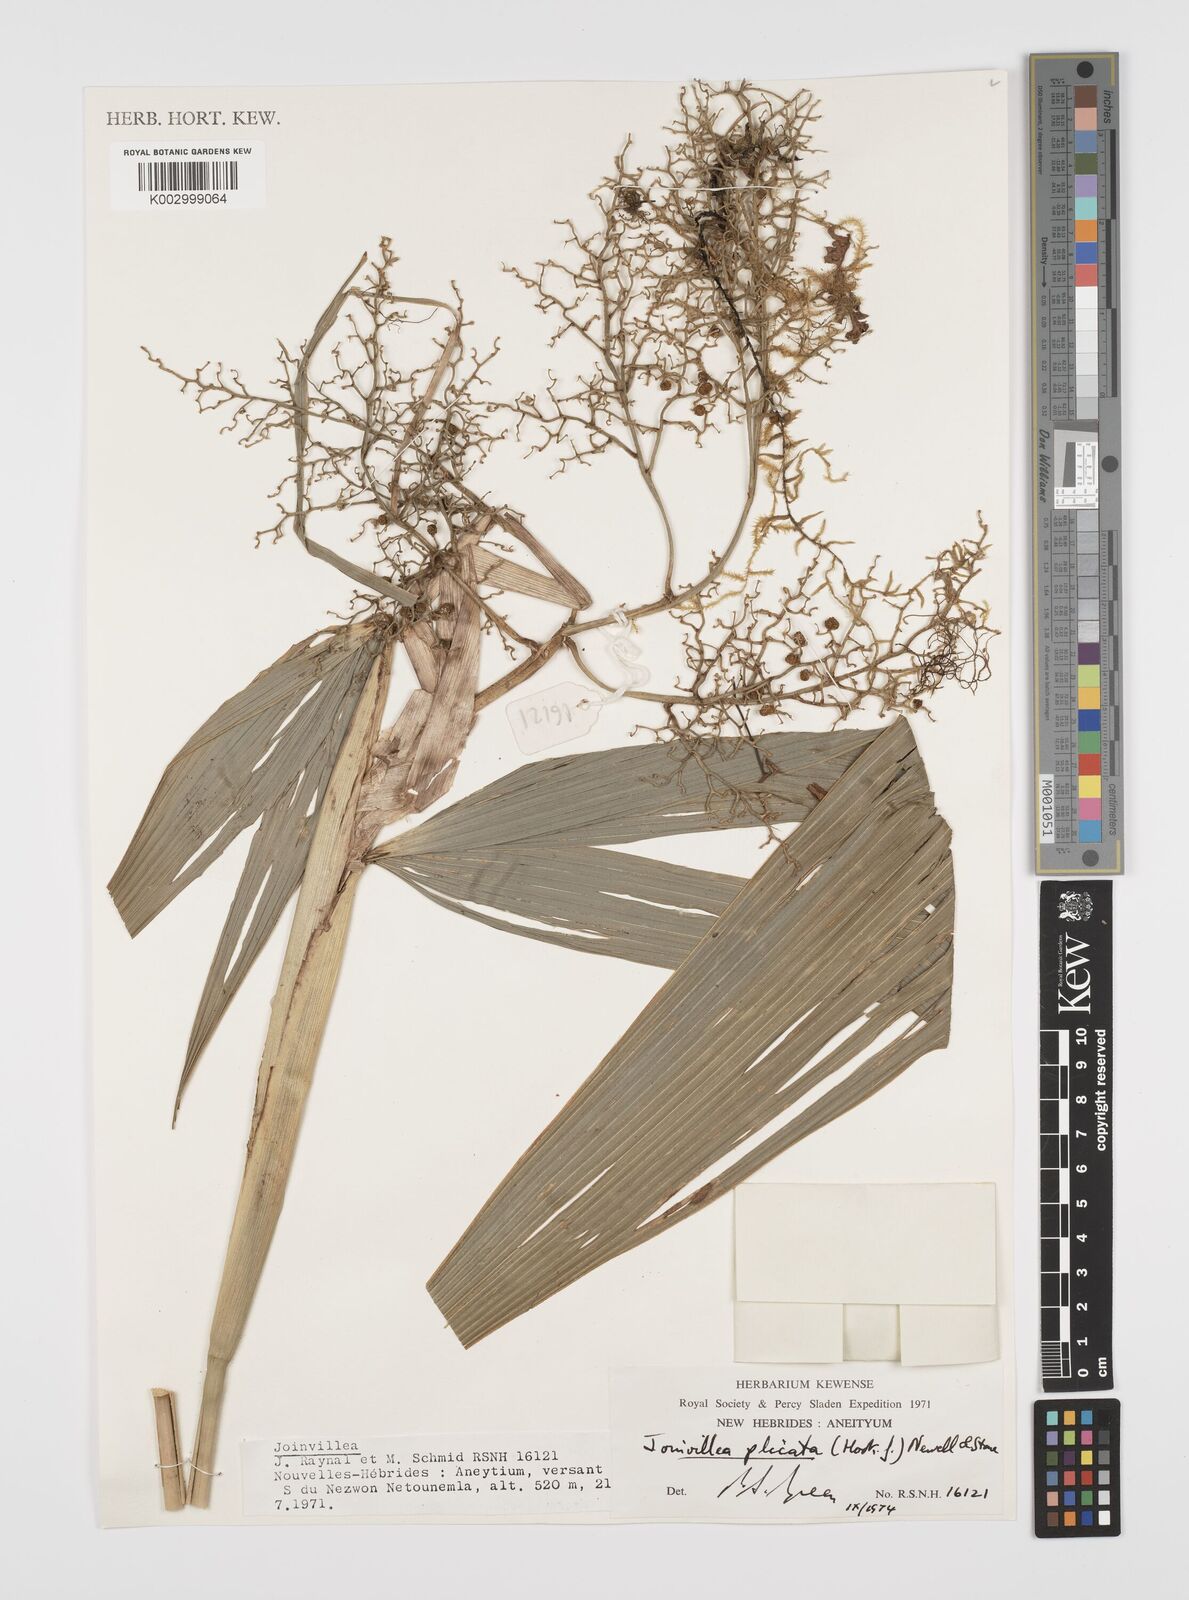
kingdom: Plantae
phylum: Tracheophyta
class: Liliopsida
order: Poales
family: Joinvilleaceae
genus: Joinvillea
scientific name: Joinvillea plicata
